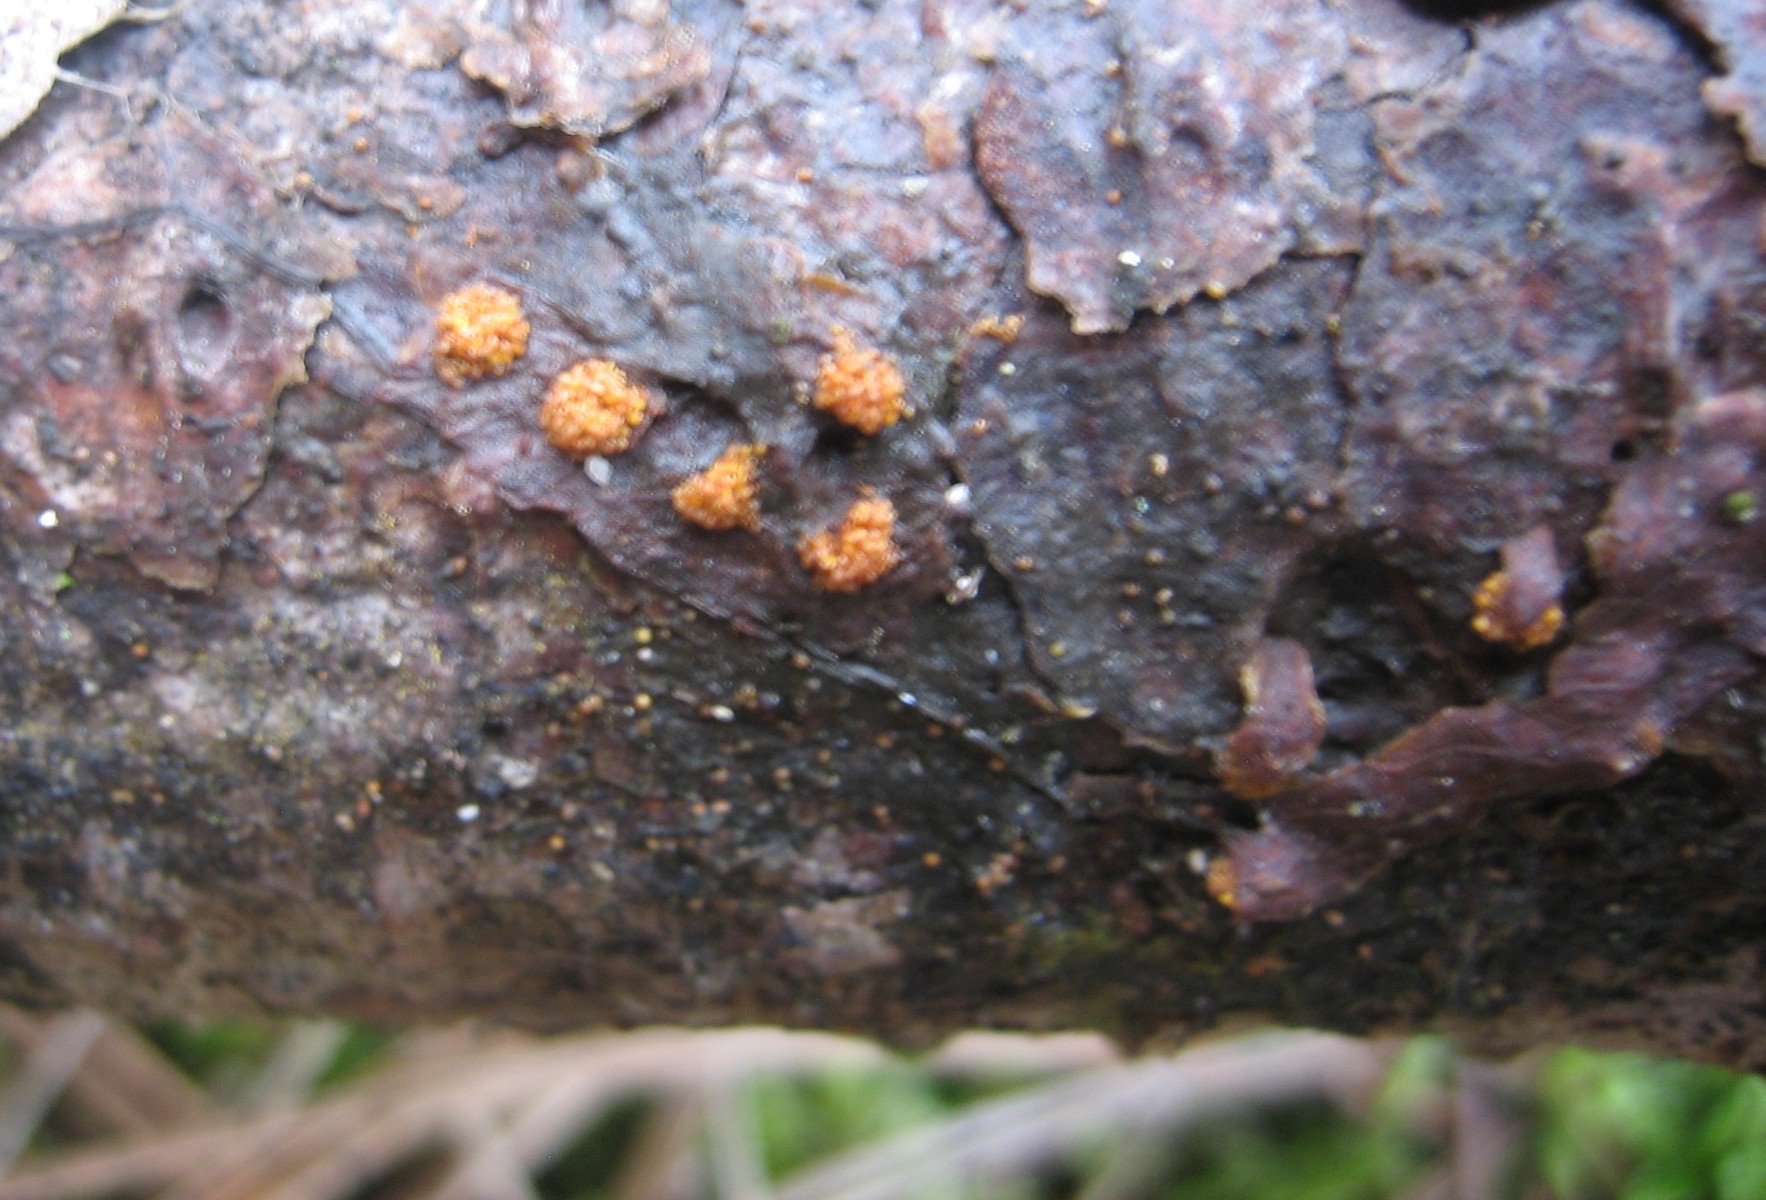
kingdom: Fungi
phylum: Ascomycota
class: Sordariomycetes
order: Hypocreales
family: Nectriaceae
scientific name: Nectriaceae
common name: cinnobersvampfamilien
